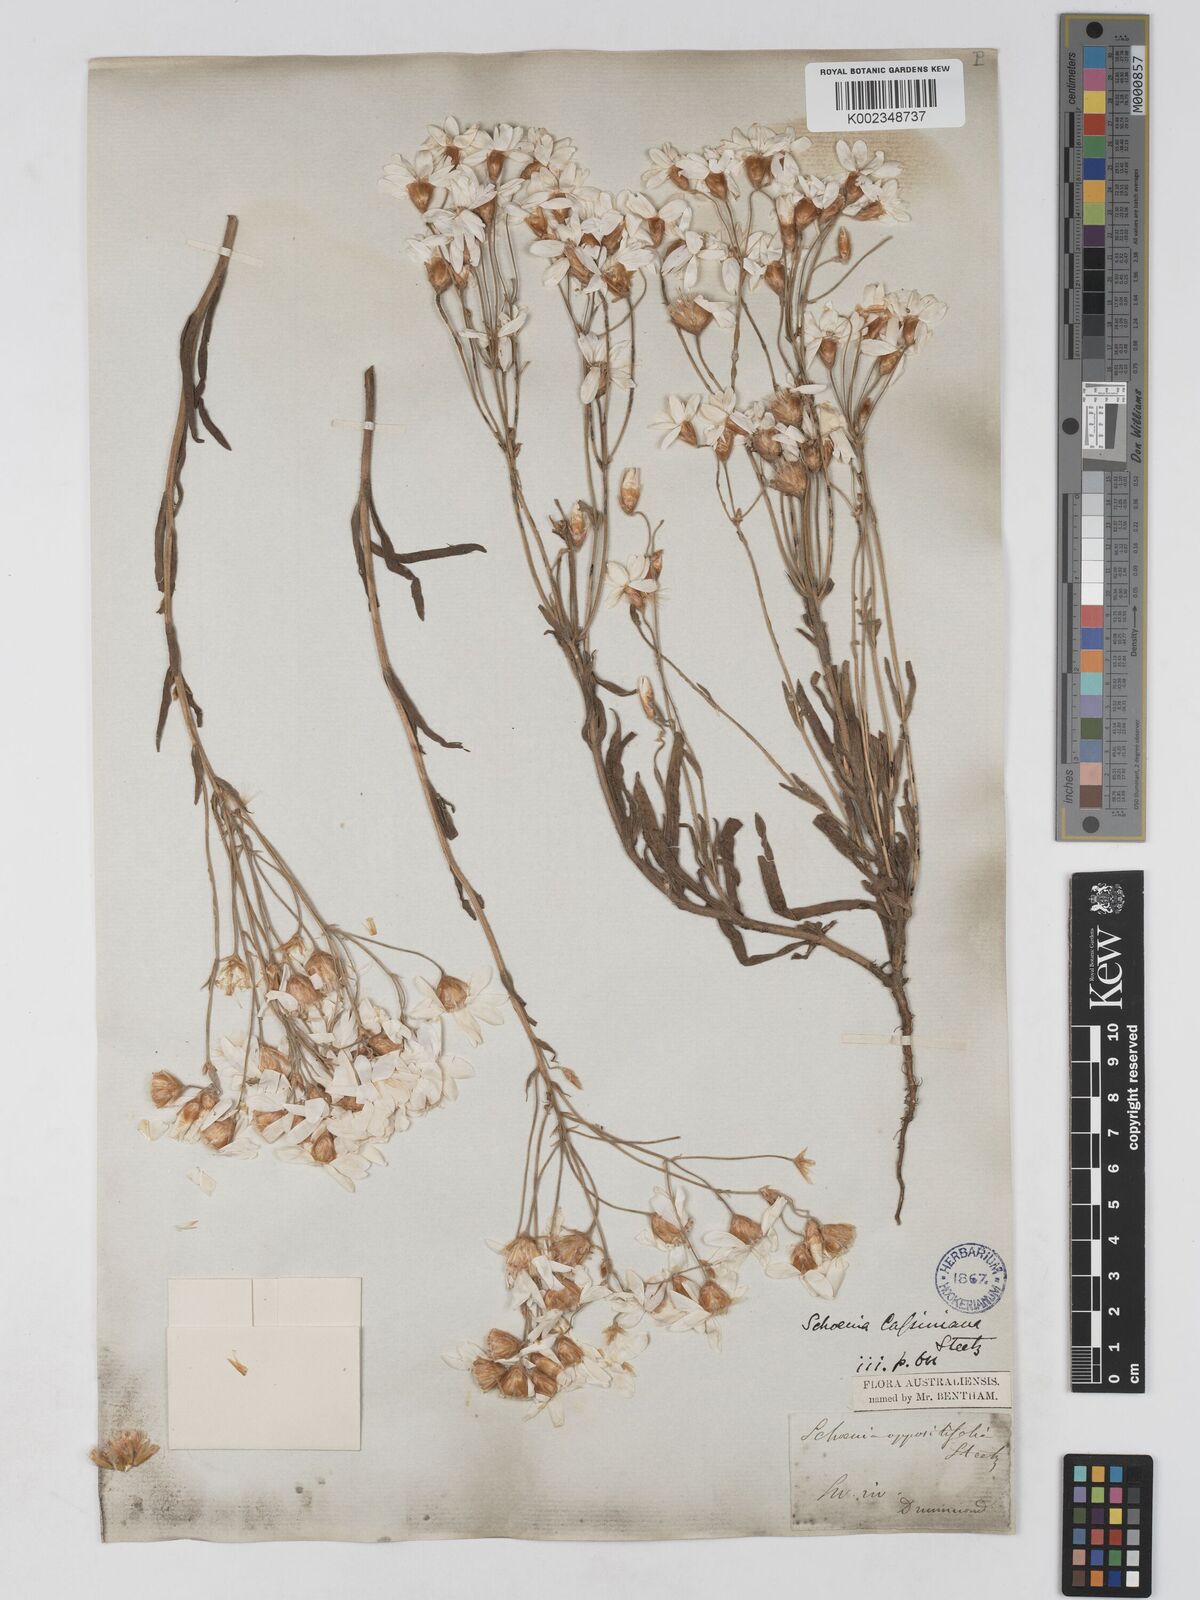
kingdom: Plantae
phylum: Tracheophyta
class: Magnoliopsida
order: Asterales
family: Asteraceae
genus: Schoenia
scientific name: Schoenia cassiniana
